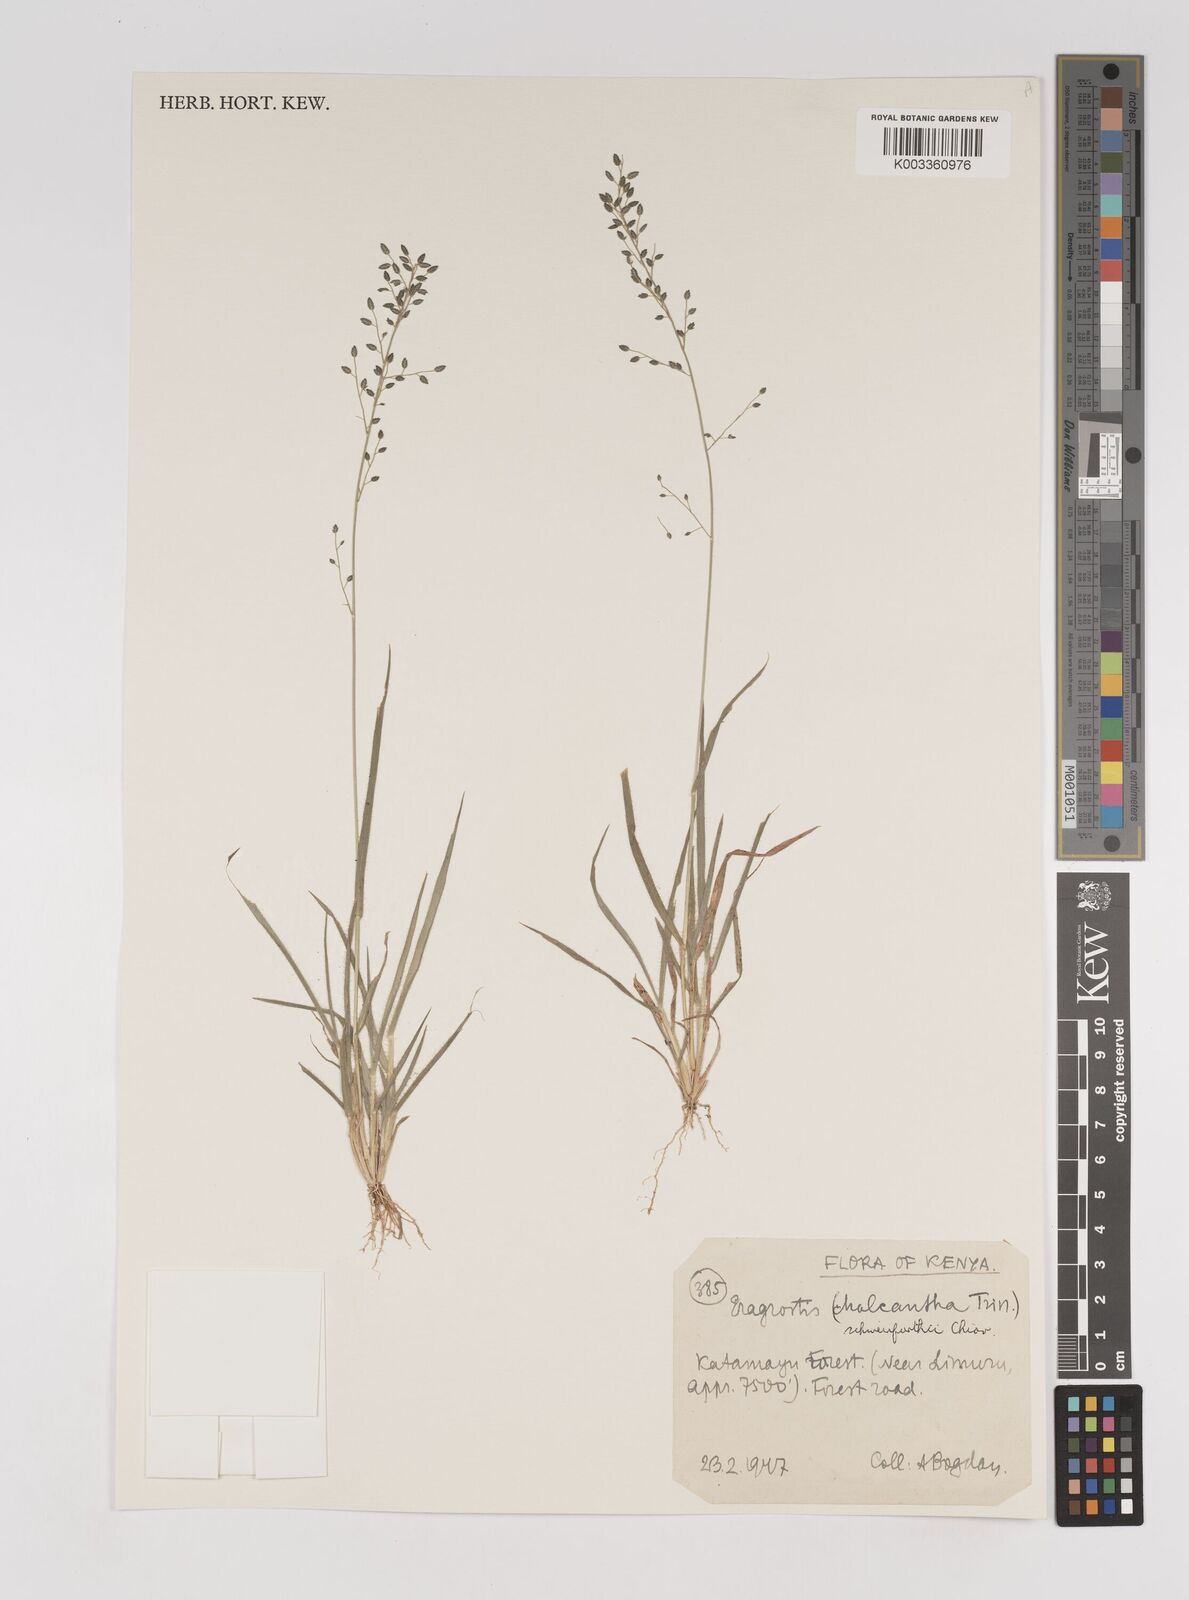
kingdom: Plantae
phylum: Tracheophyta
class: Liliopsida
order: Poales
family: Poaceae
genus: Eragrostis
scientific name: Eragrostis schweinfurthii
